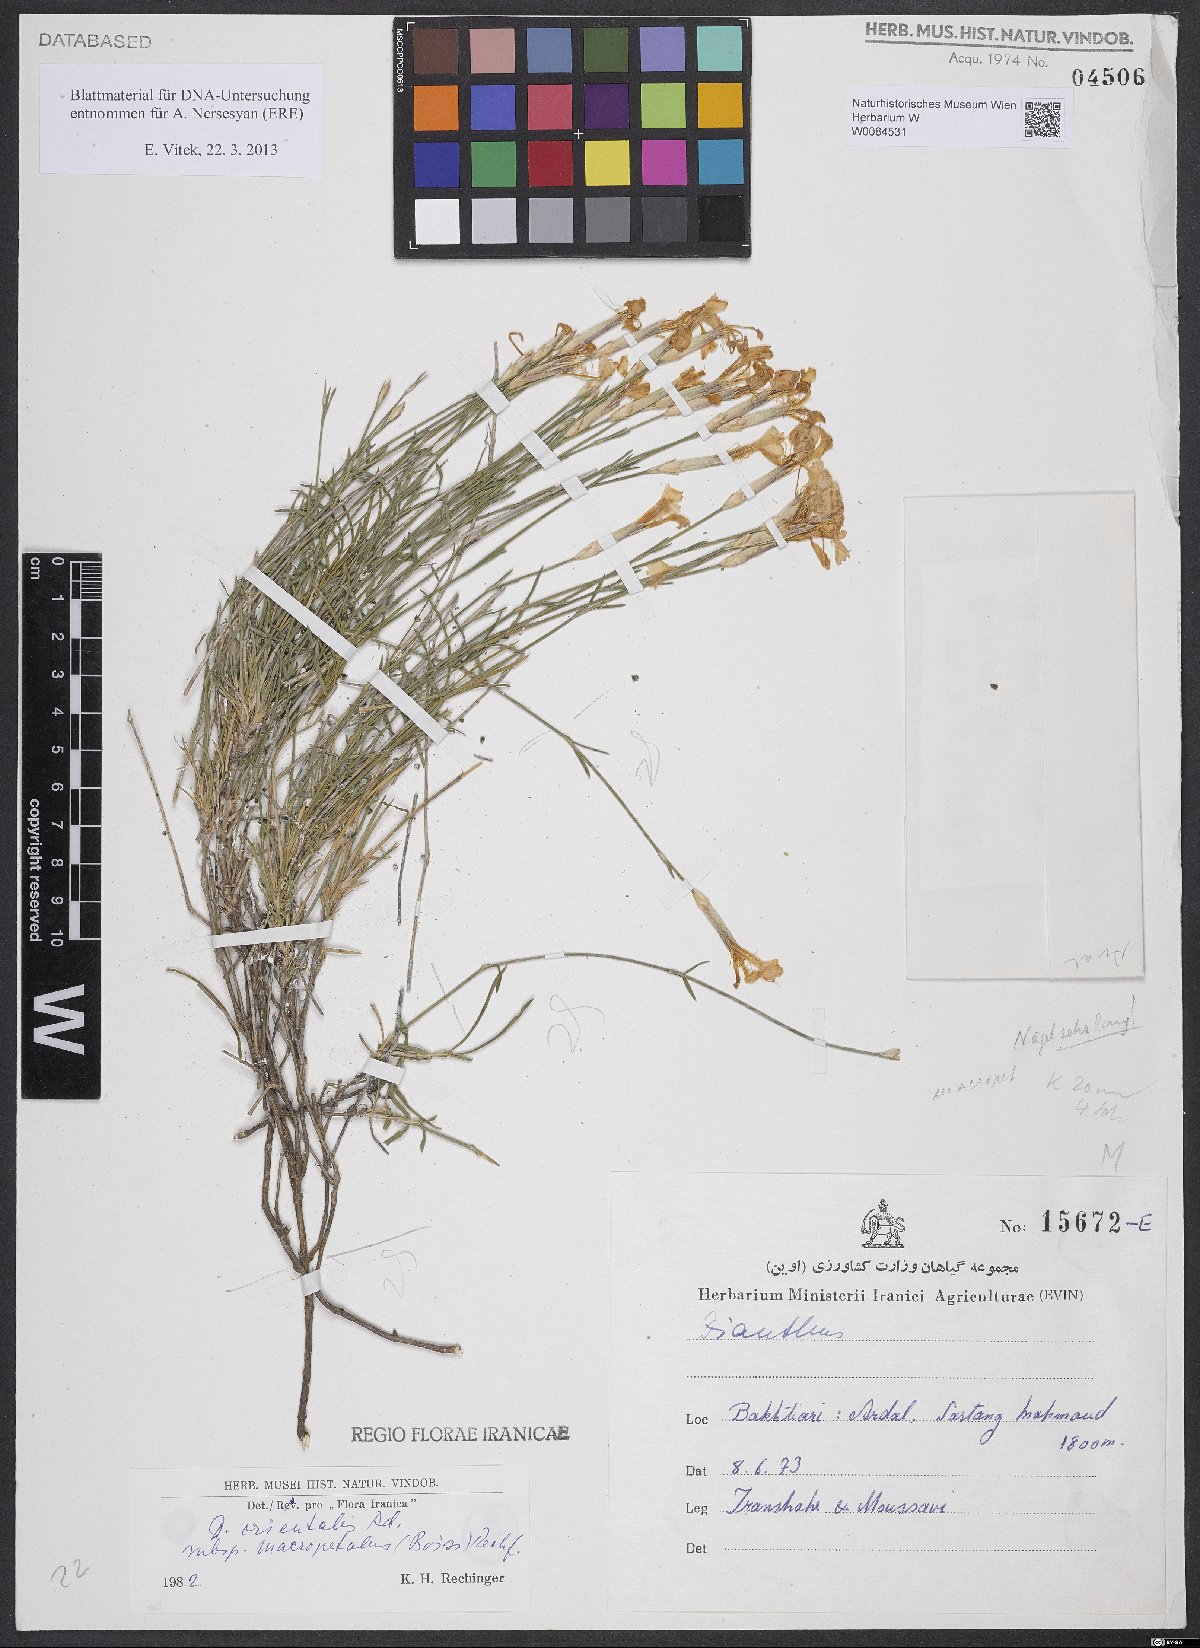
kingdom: Plantae
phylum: Tracheophyta
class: Magnoliopsida
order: Caryophyllales
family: Caryophyllaceae
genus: Dianthus
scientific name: Dianthus orientalis
